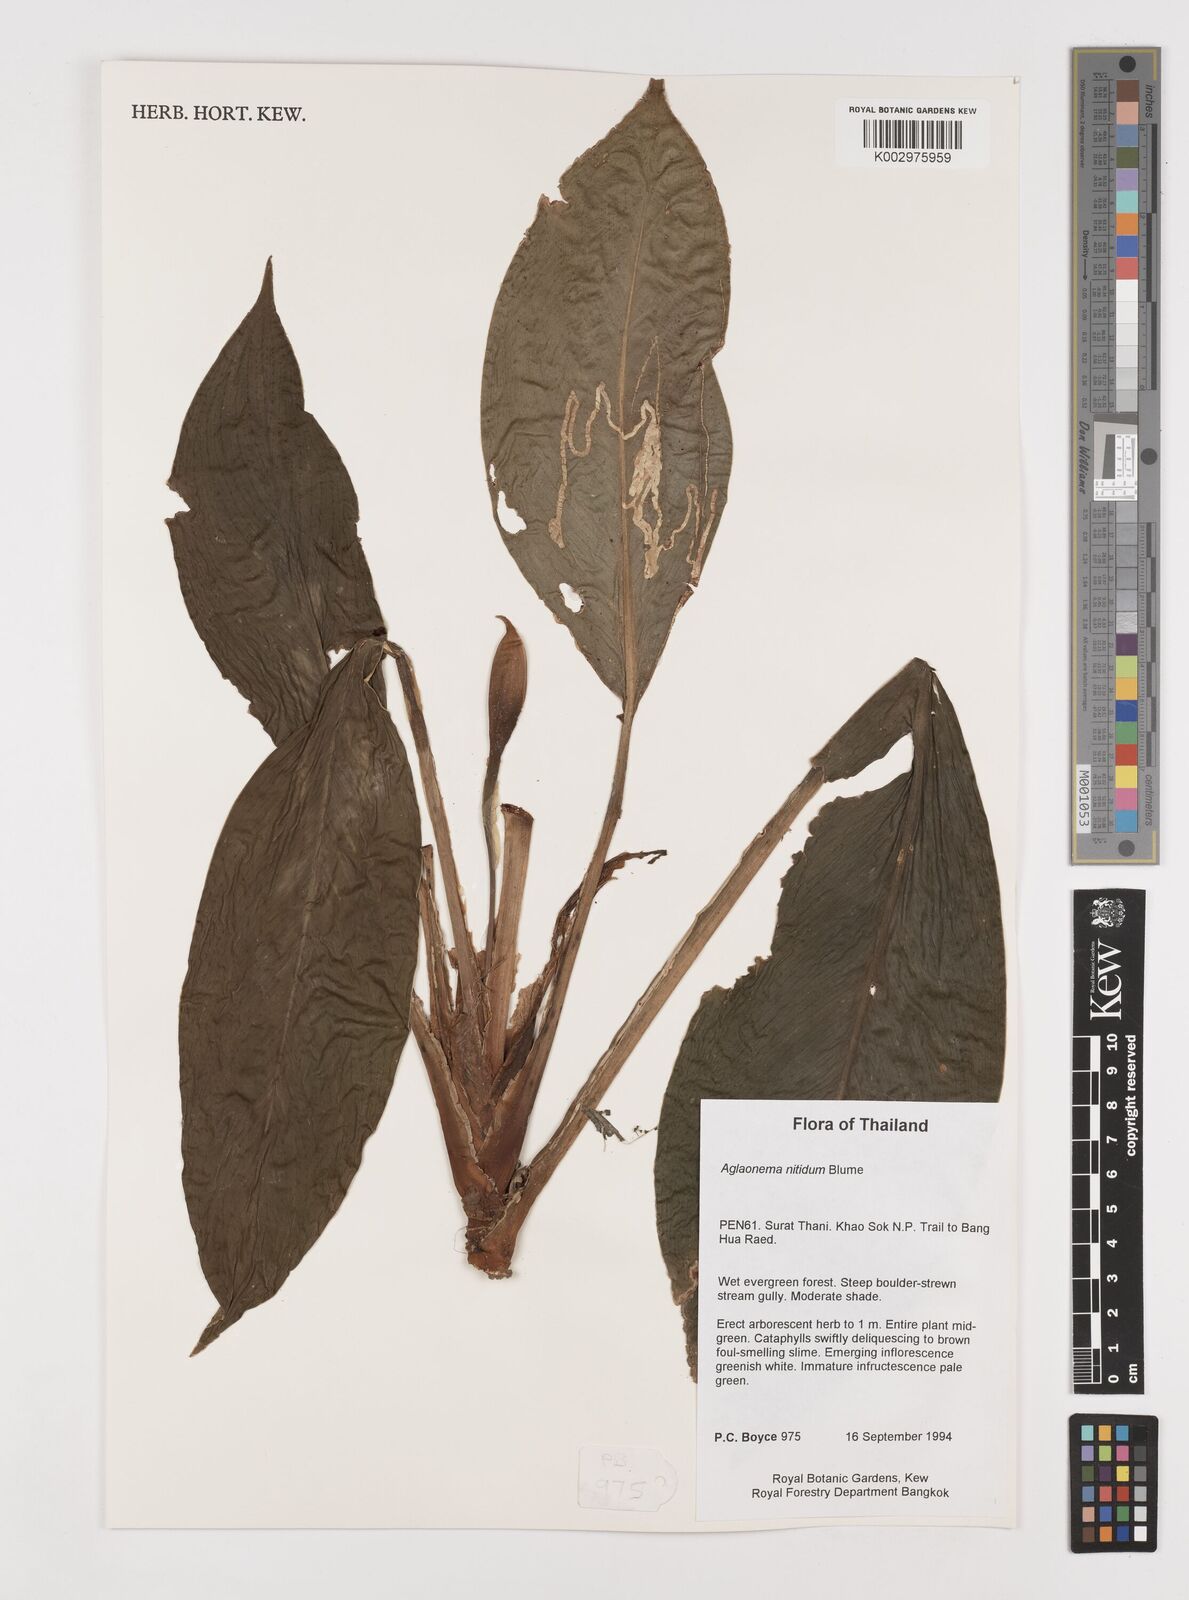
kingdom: Plantae
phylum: Tracheophyta
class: Liliopsida
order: Alismatales
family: Araceae
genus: Aglaonema
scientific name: Aglaonema nitidum
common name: Aglaonema aroid
